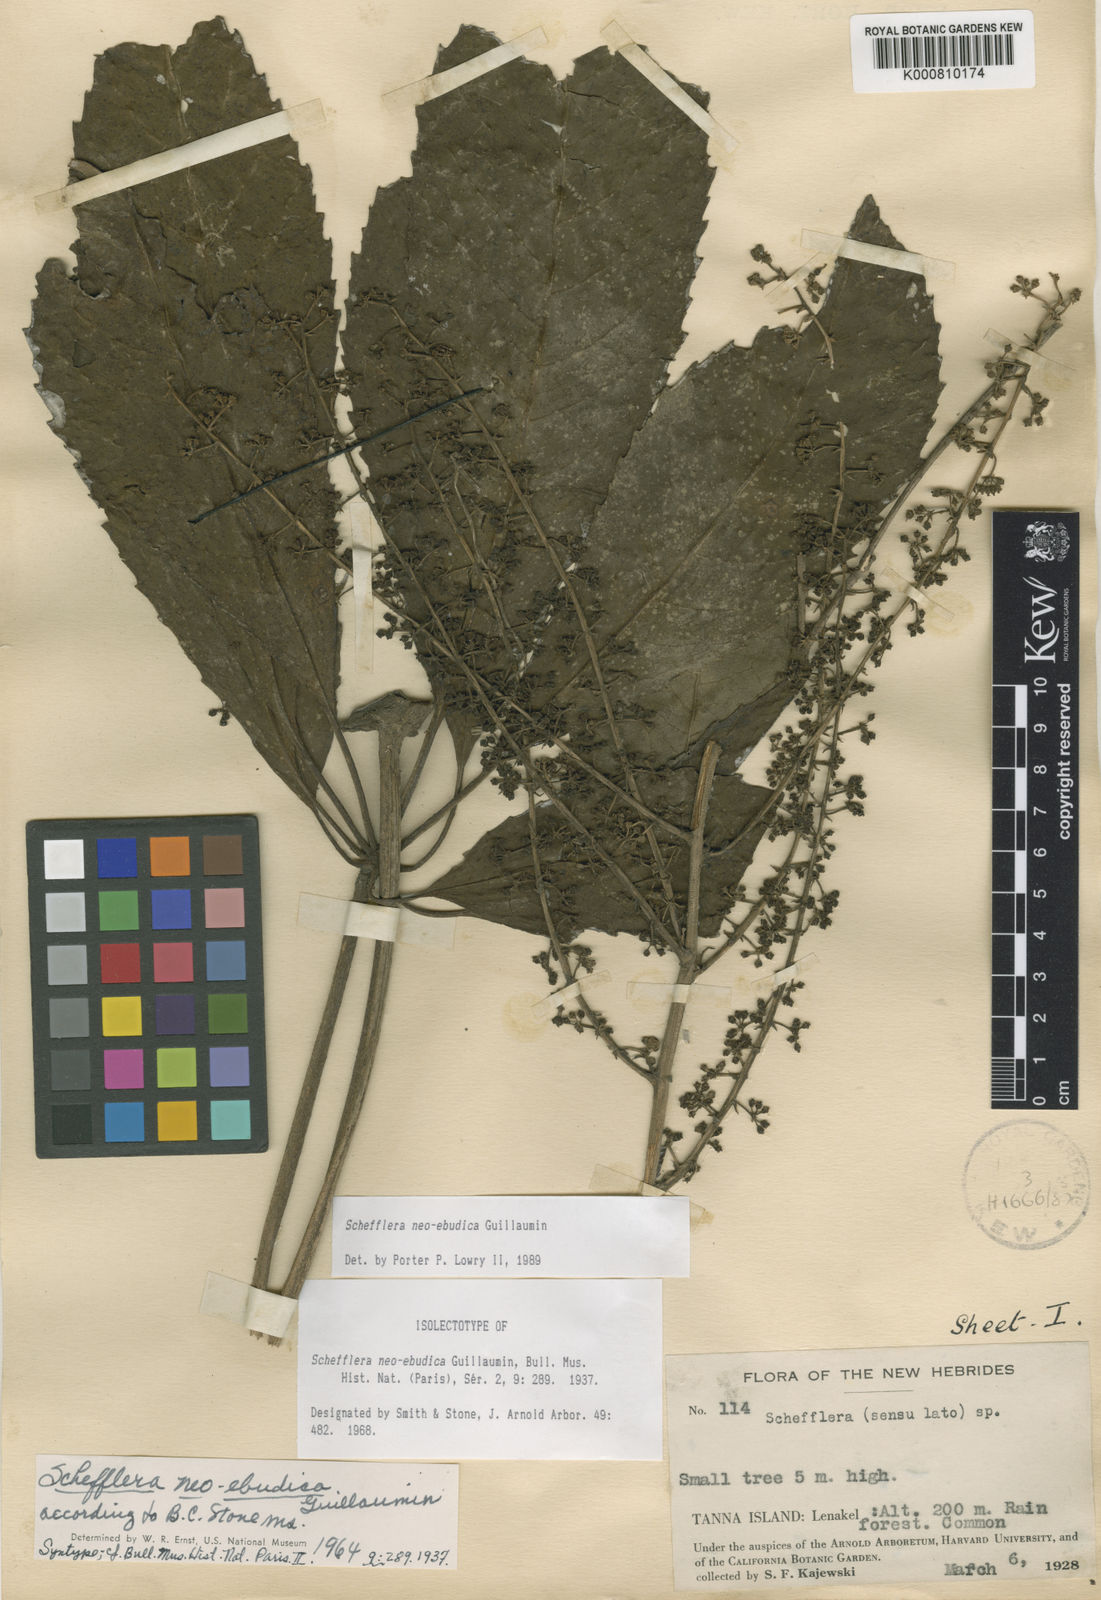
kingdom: Plantae
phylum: Tracheophyta
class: Magnoliopsida
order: Apiales
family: Araliaceae
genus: Schefflera
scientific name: Schefflera neoebudica
